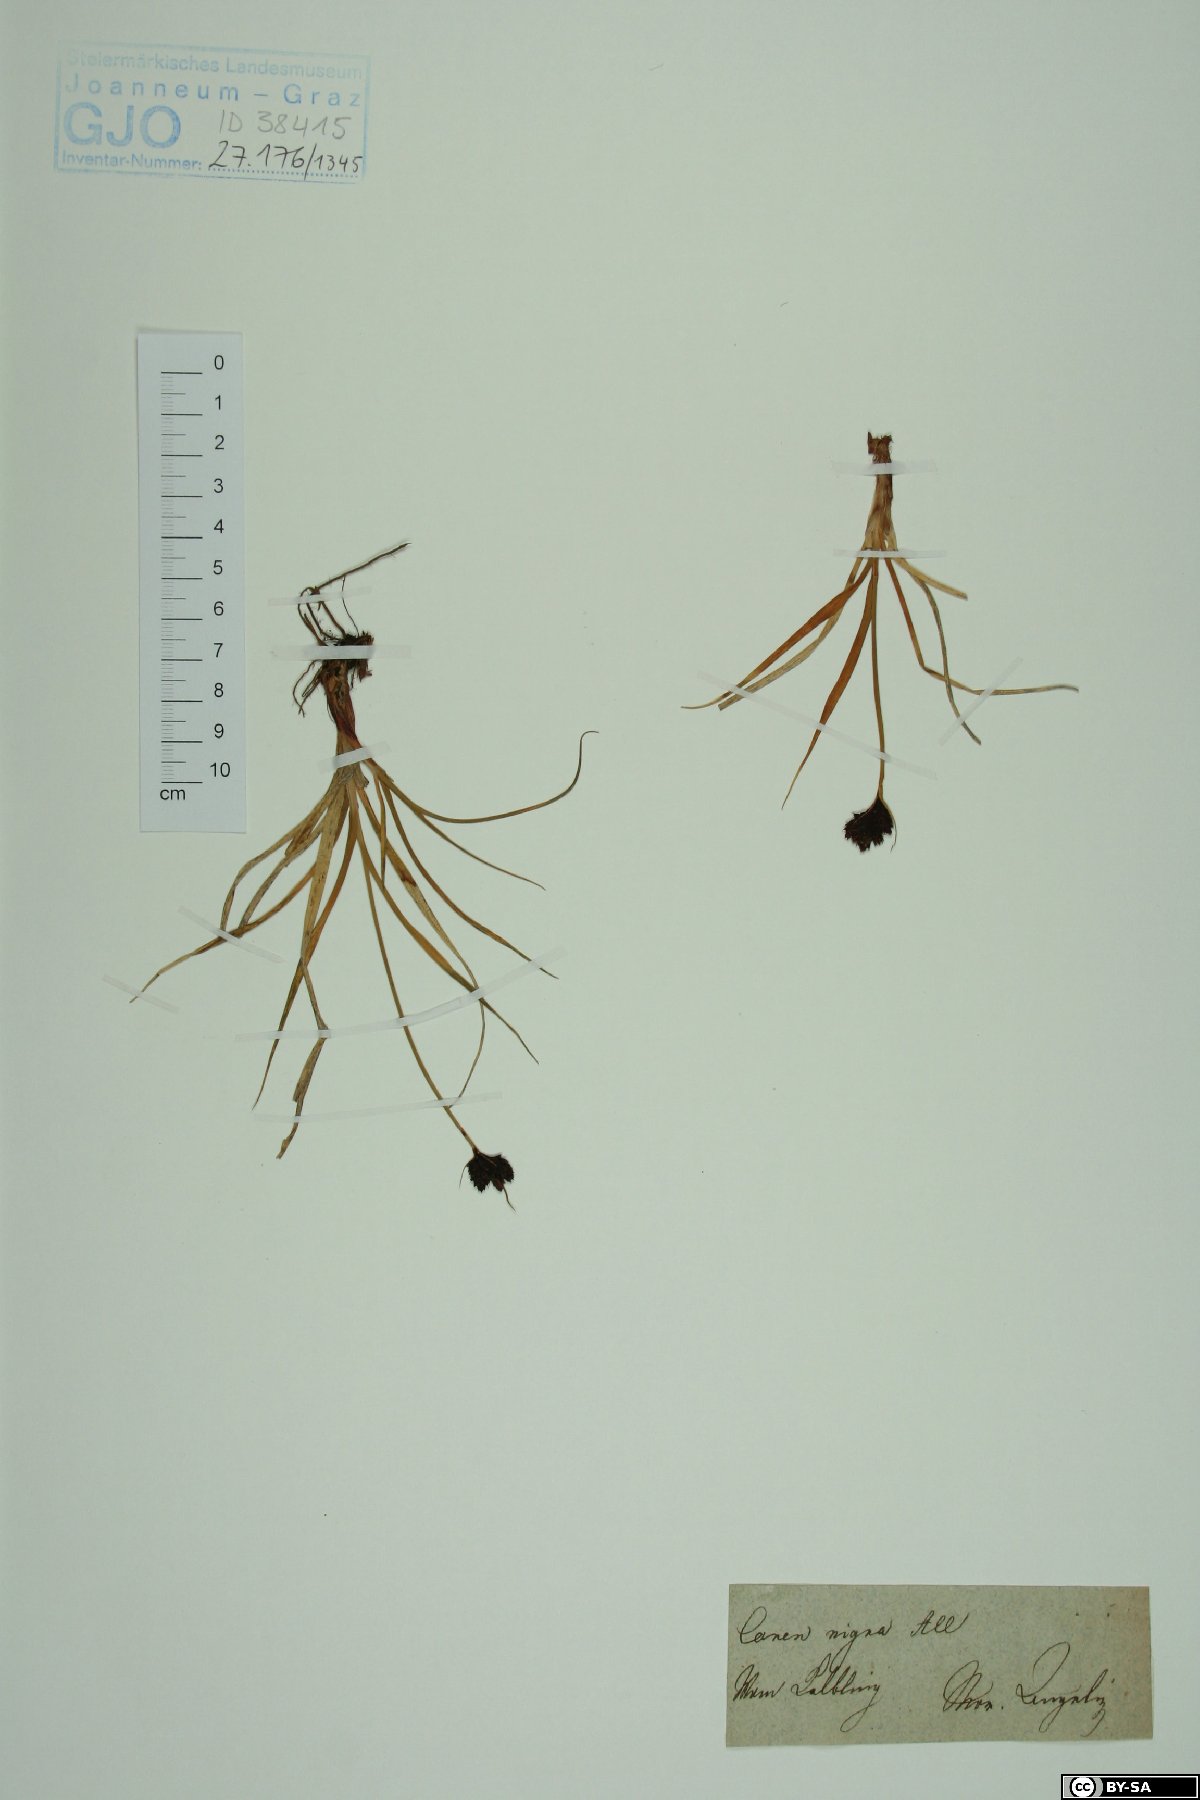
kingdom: Plantae
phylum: Tracheophyta
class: Liliopsida
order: Poales
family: Cyperaceae
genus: Carex
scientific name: Carex nigra
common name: Common sedge
